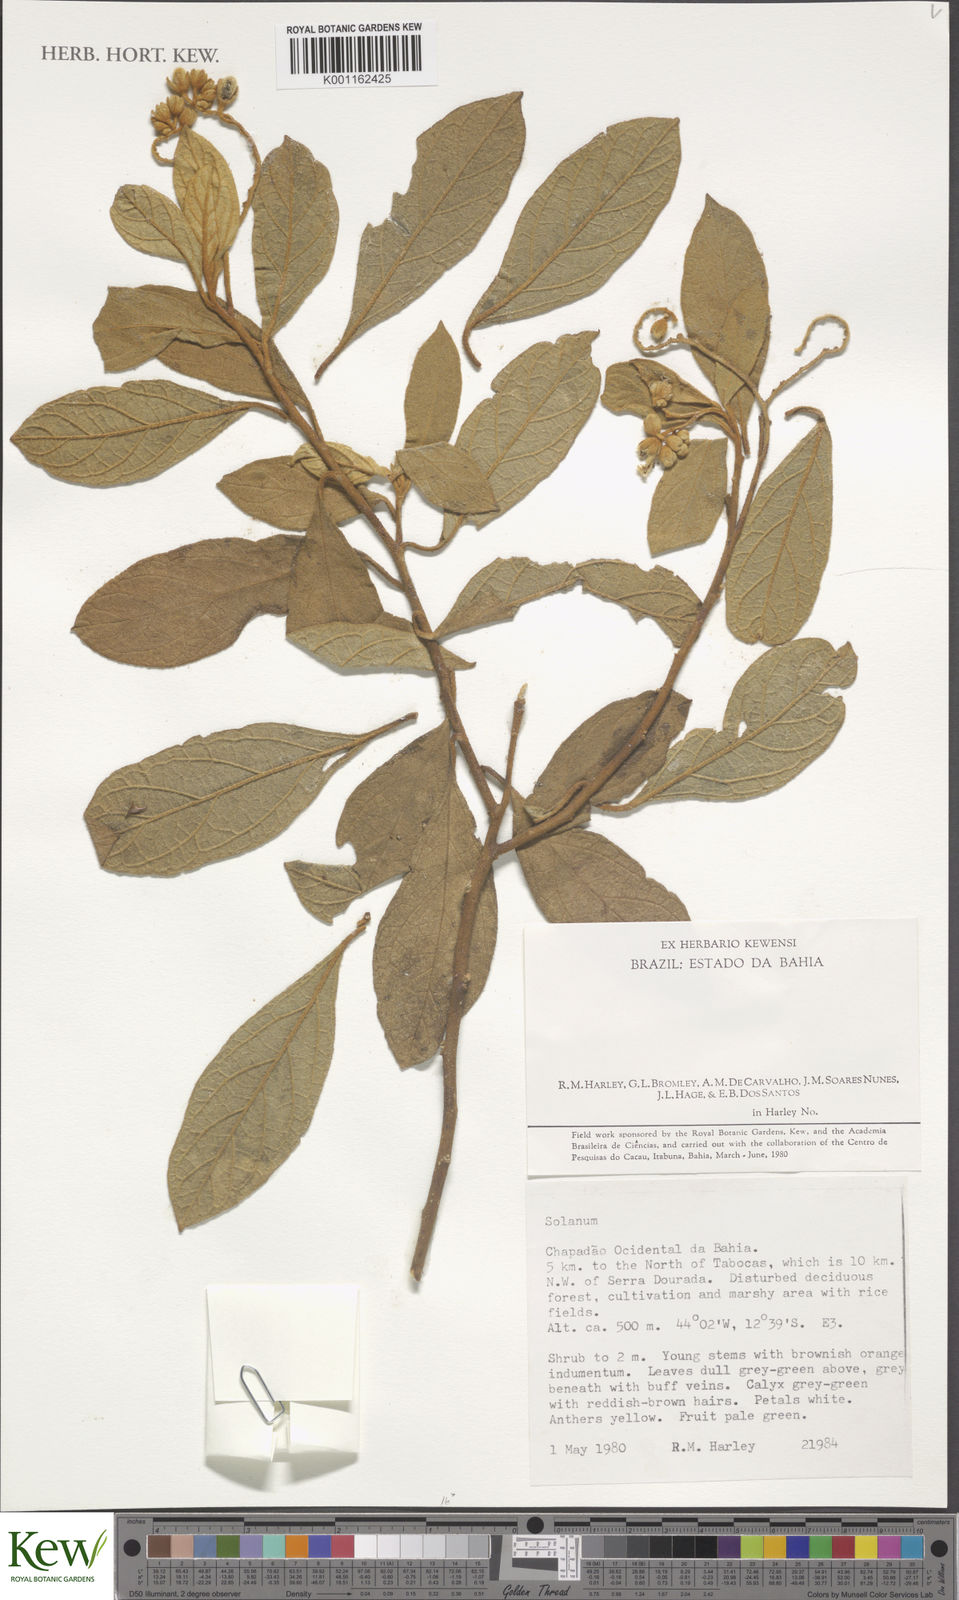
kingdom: Plantae
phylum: Tracheophyta
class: Magnoliopsida
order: Solanales
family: Solanaceae
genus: Solanum
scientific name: Solanum megalonyx
